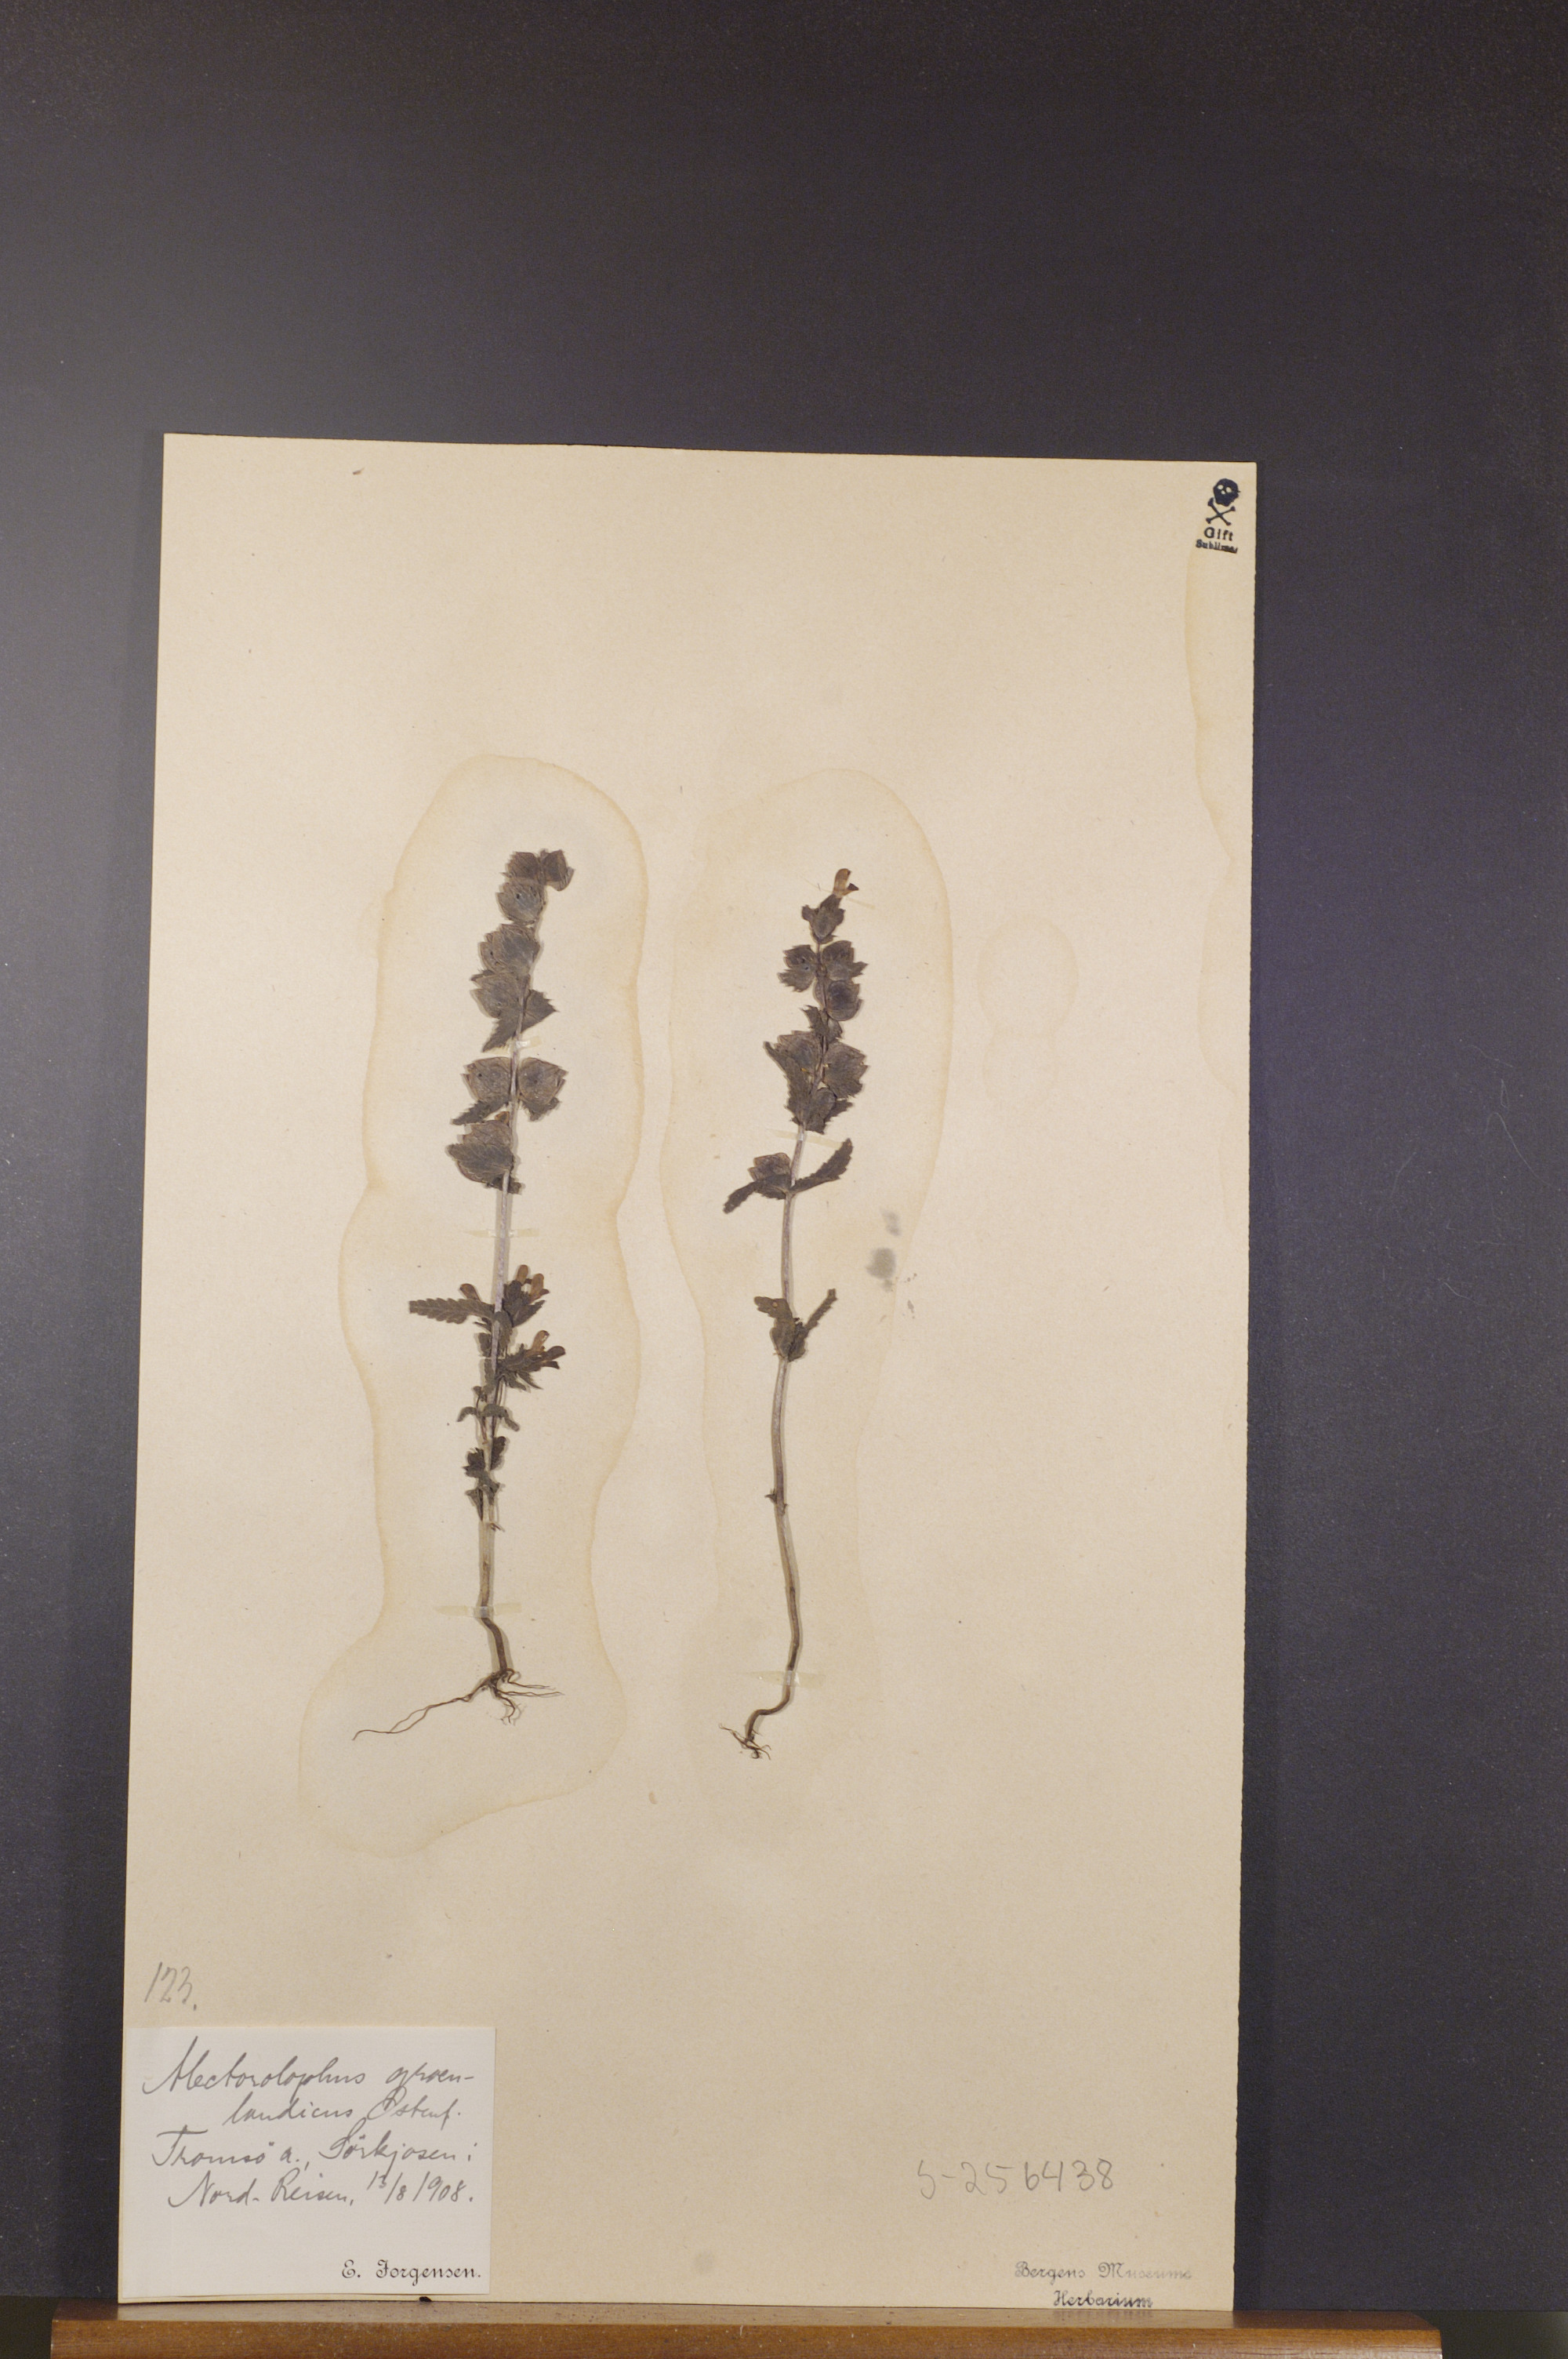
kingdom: Plantae
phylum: Tracheophyta
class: Magnoliopsida
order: Lamiales
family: Orobanchaceae
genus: Rhinanthus
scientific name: Rhinanthus groenlandicus
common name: Little yellow rattle
